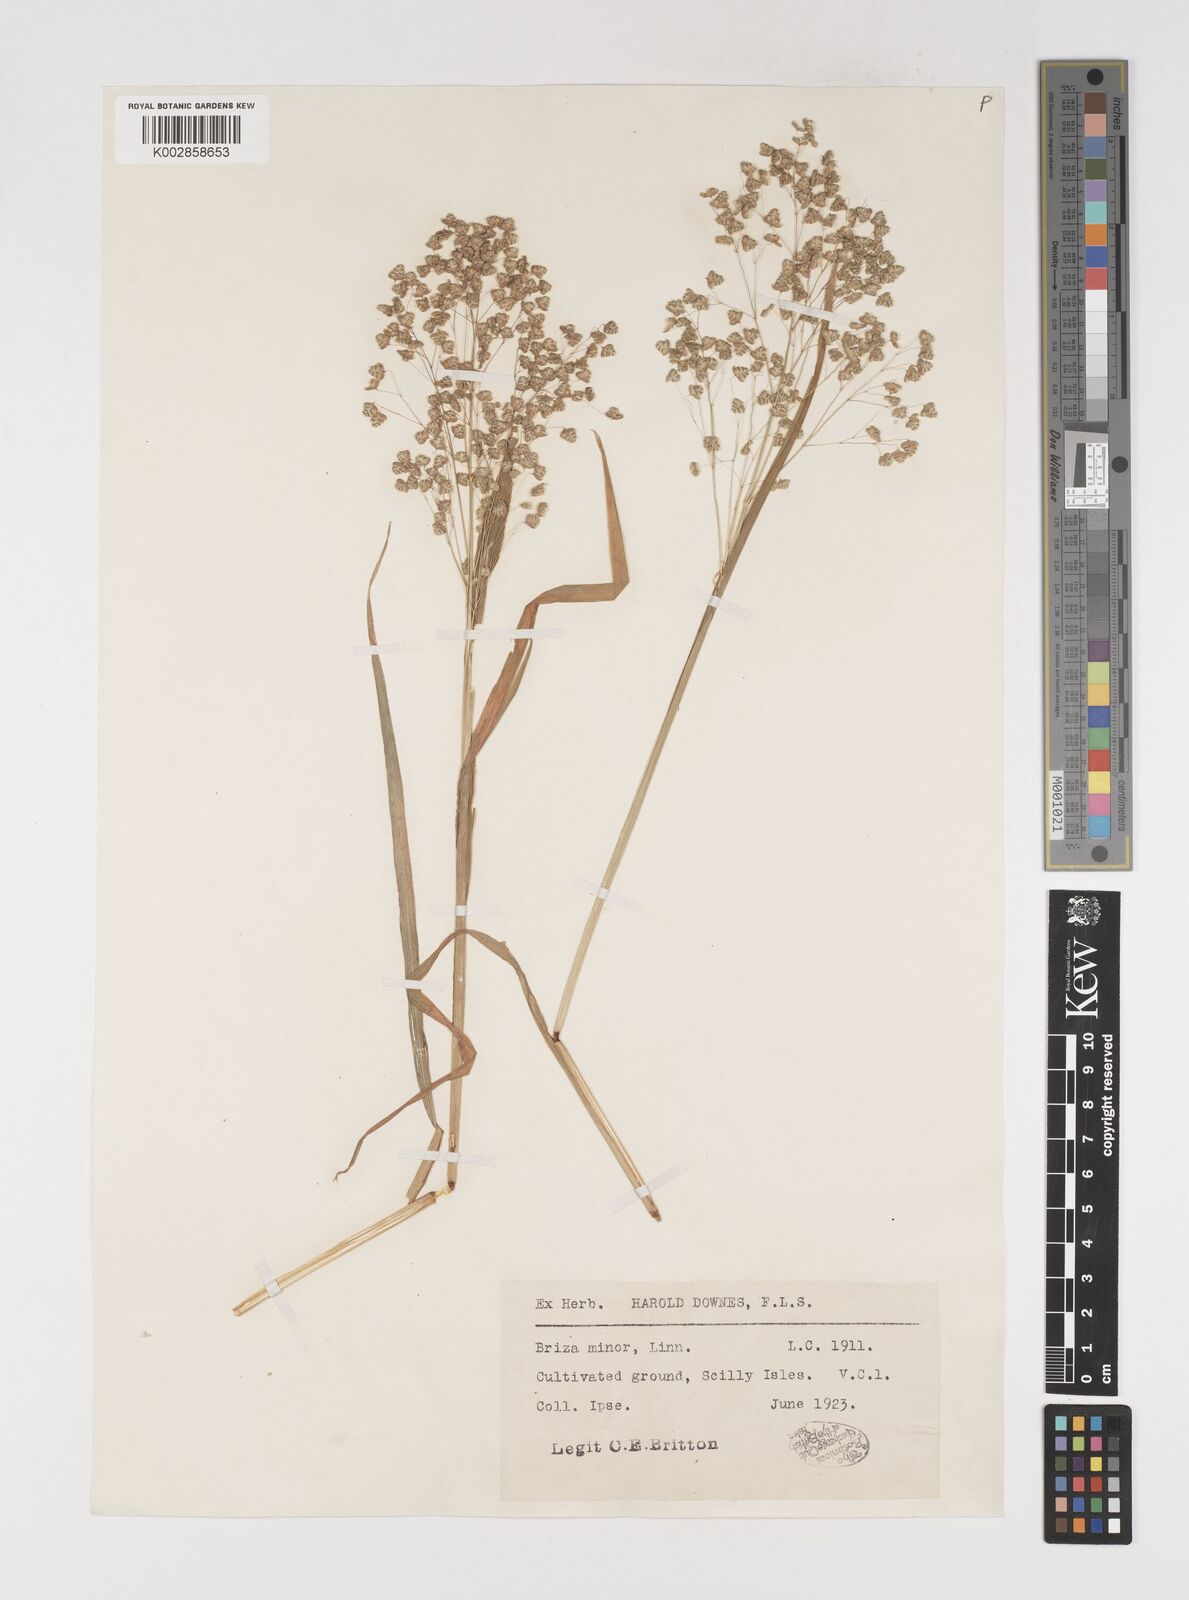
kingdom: Plantae
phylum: Tracheophyta
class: Liliopsida
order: Poales
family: Poaceae
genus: Briza
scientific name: Briza minor
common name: Lesser quaking-grass
